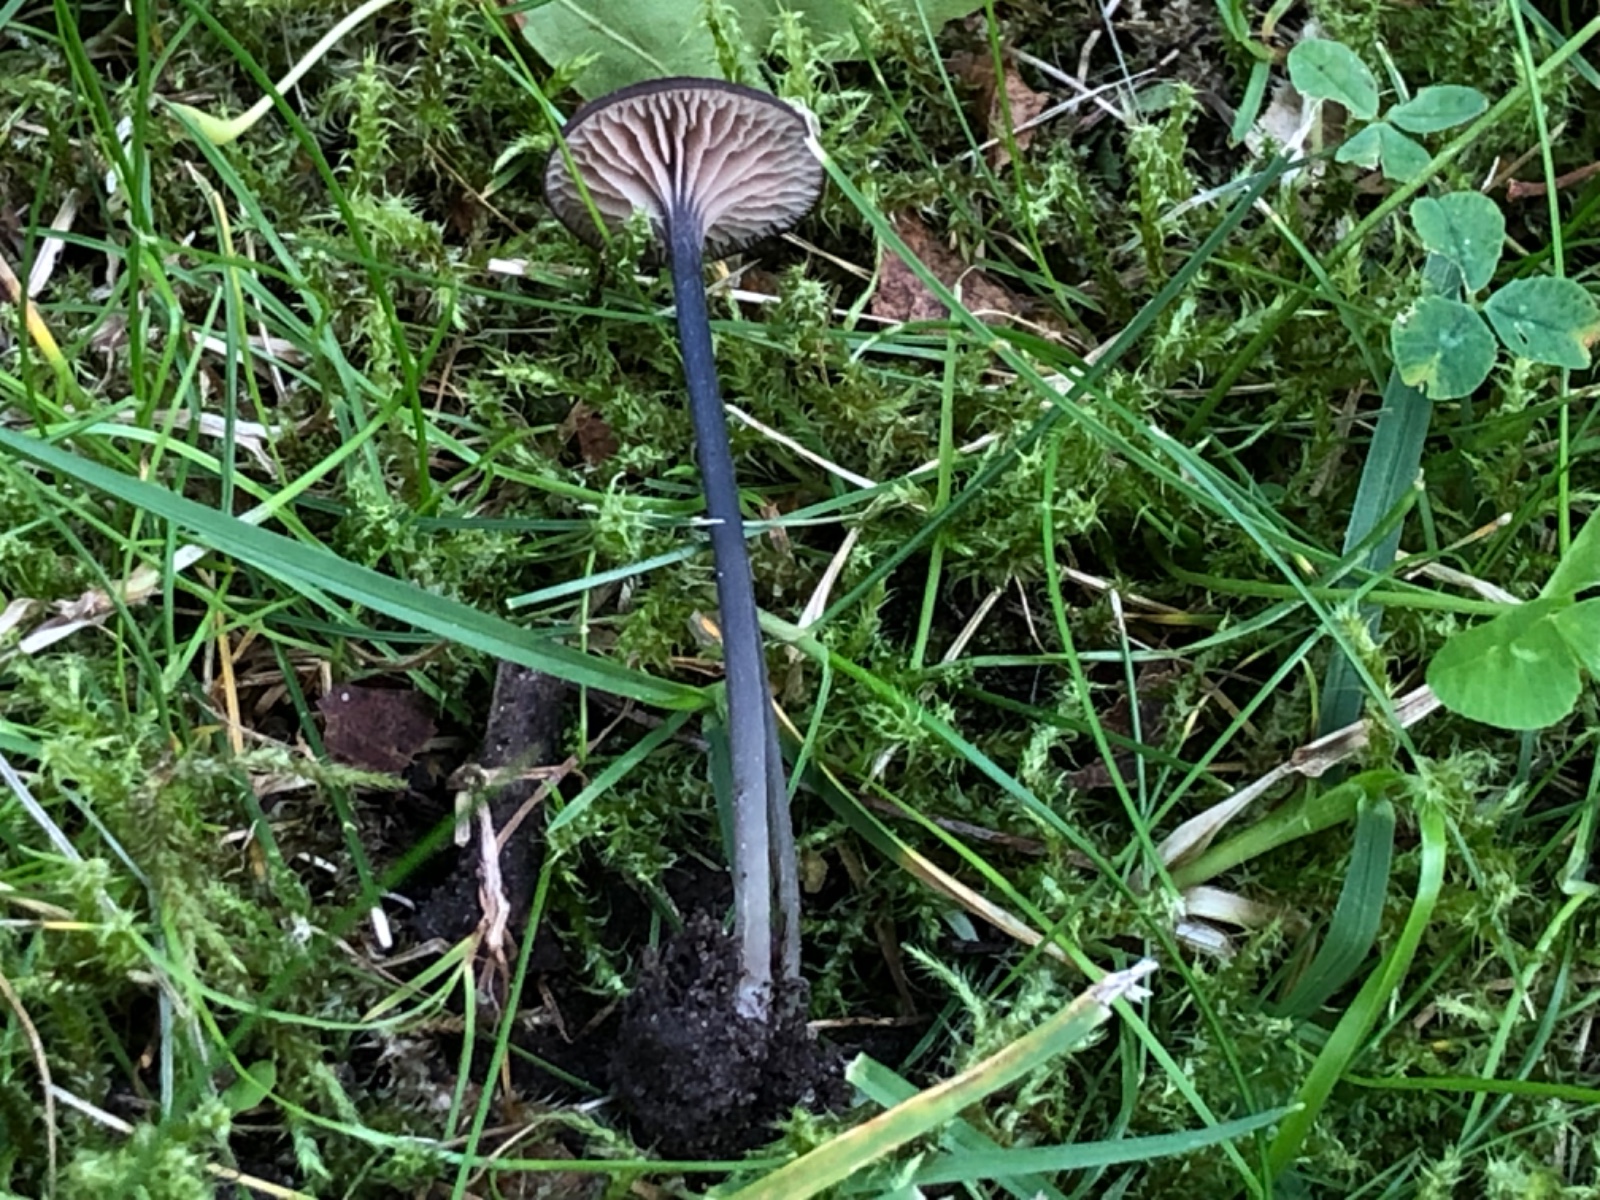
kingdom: Fungi
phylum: Basidiomycota
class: Agaricomycetes
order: Agaricales
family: Entolomataceae
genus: Entoloma
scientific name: Entoloma incarnatofuscescens
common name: tragt-rødblad
